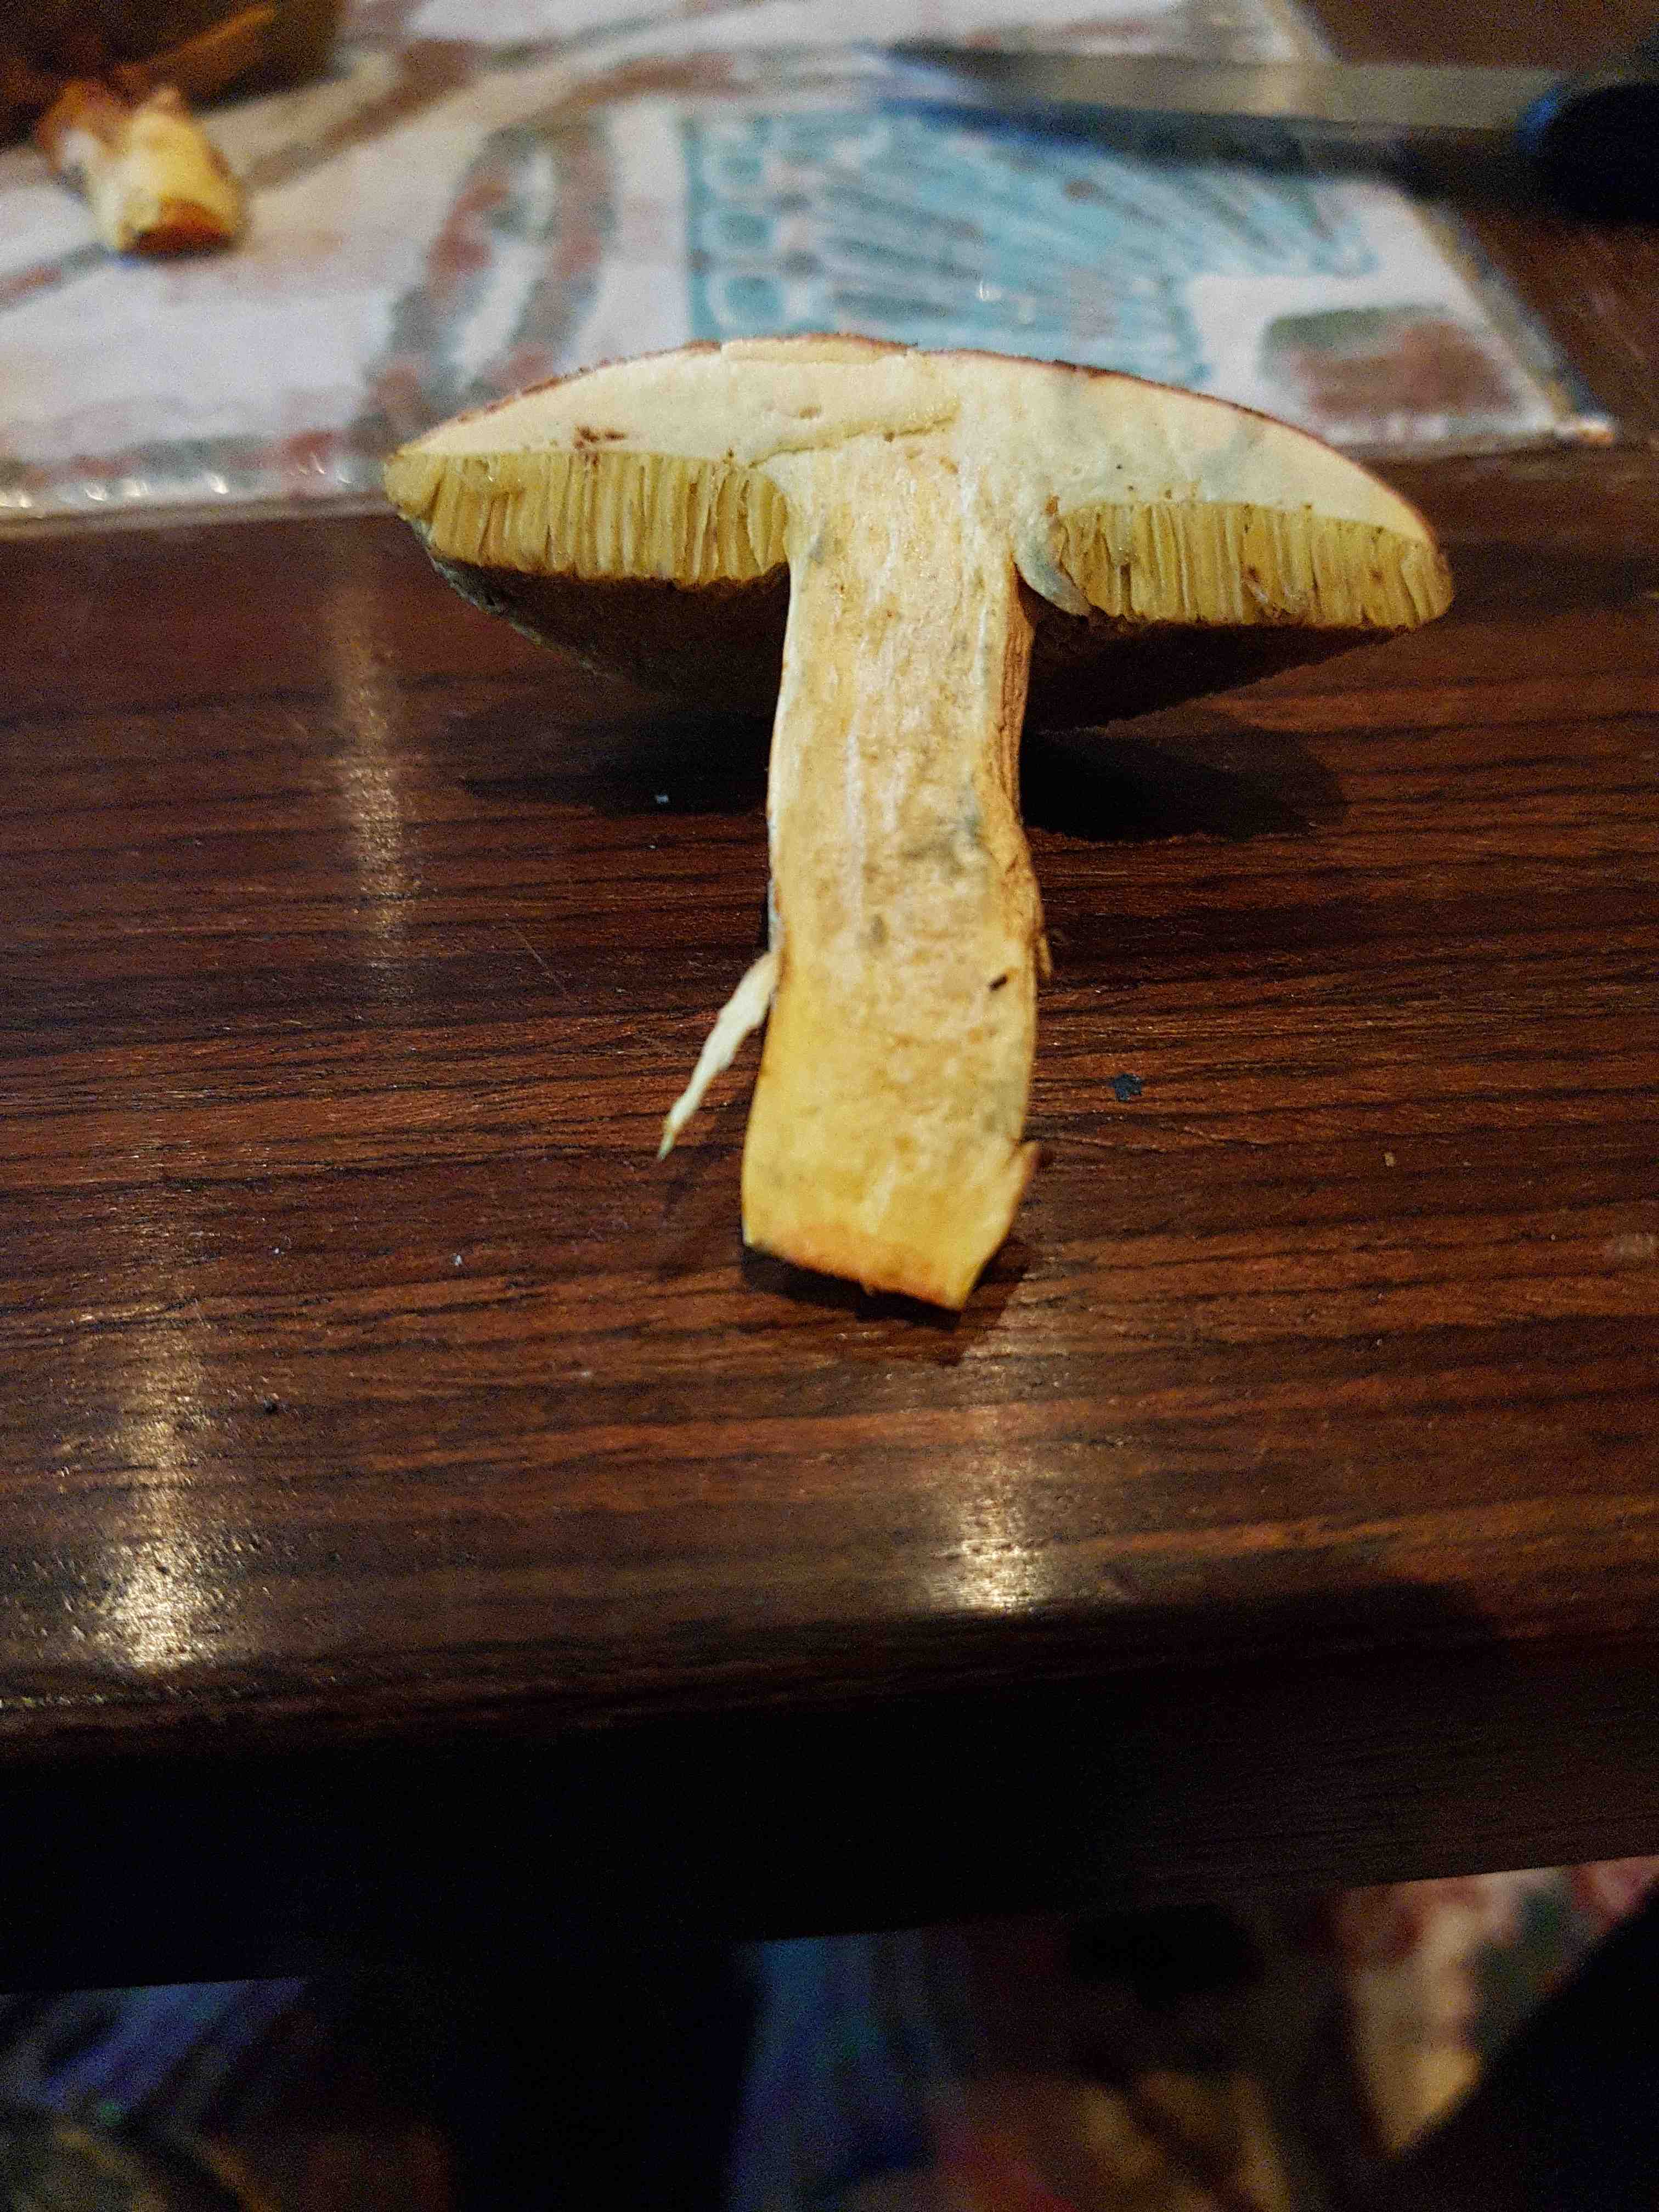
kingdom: Fungi
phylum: Basidiomycota
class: Agaricomycetes
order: Boletales
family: Boletaceae
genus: Xerocomellus
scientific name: Xerocomellus chrysenteron
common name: rødsprukken rørhat
